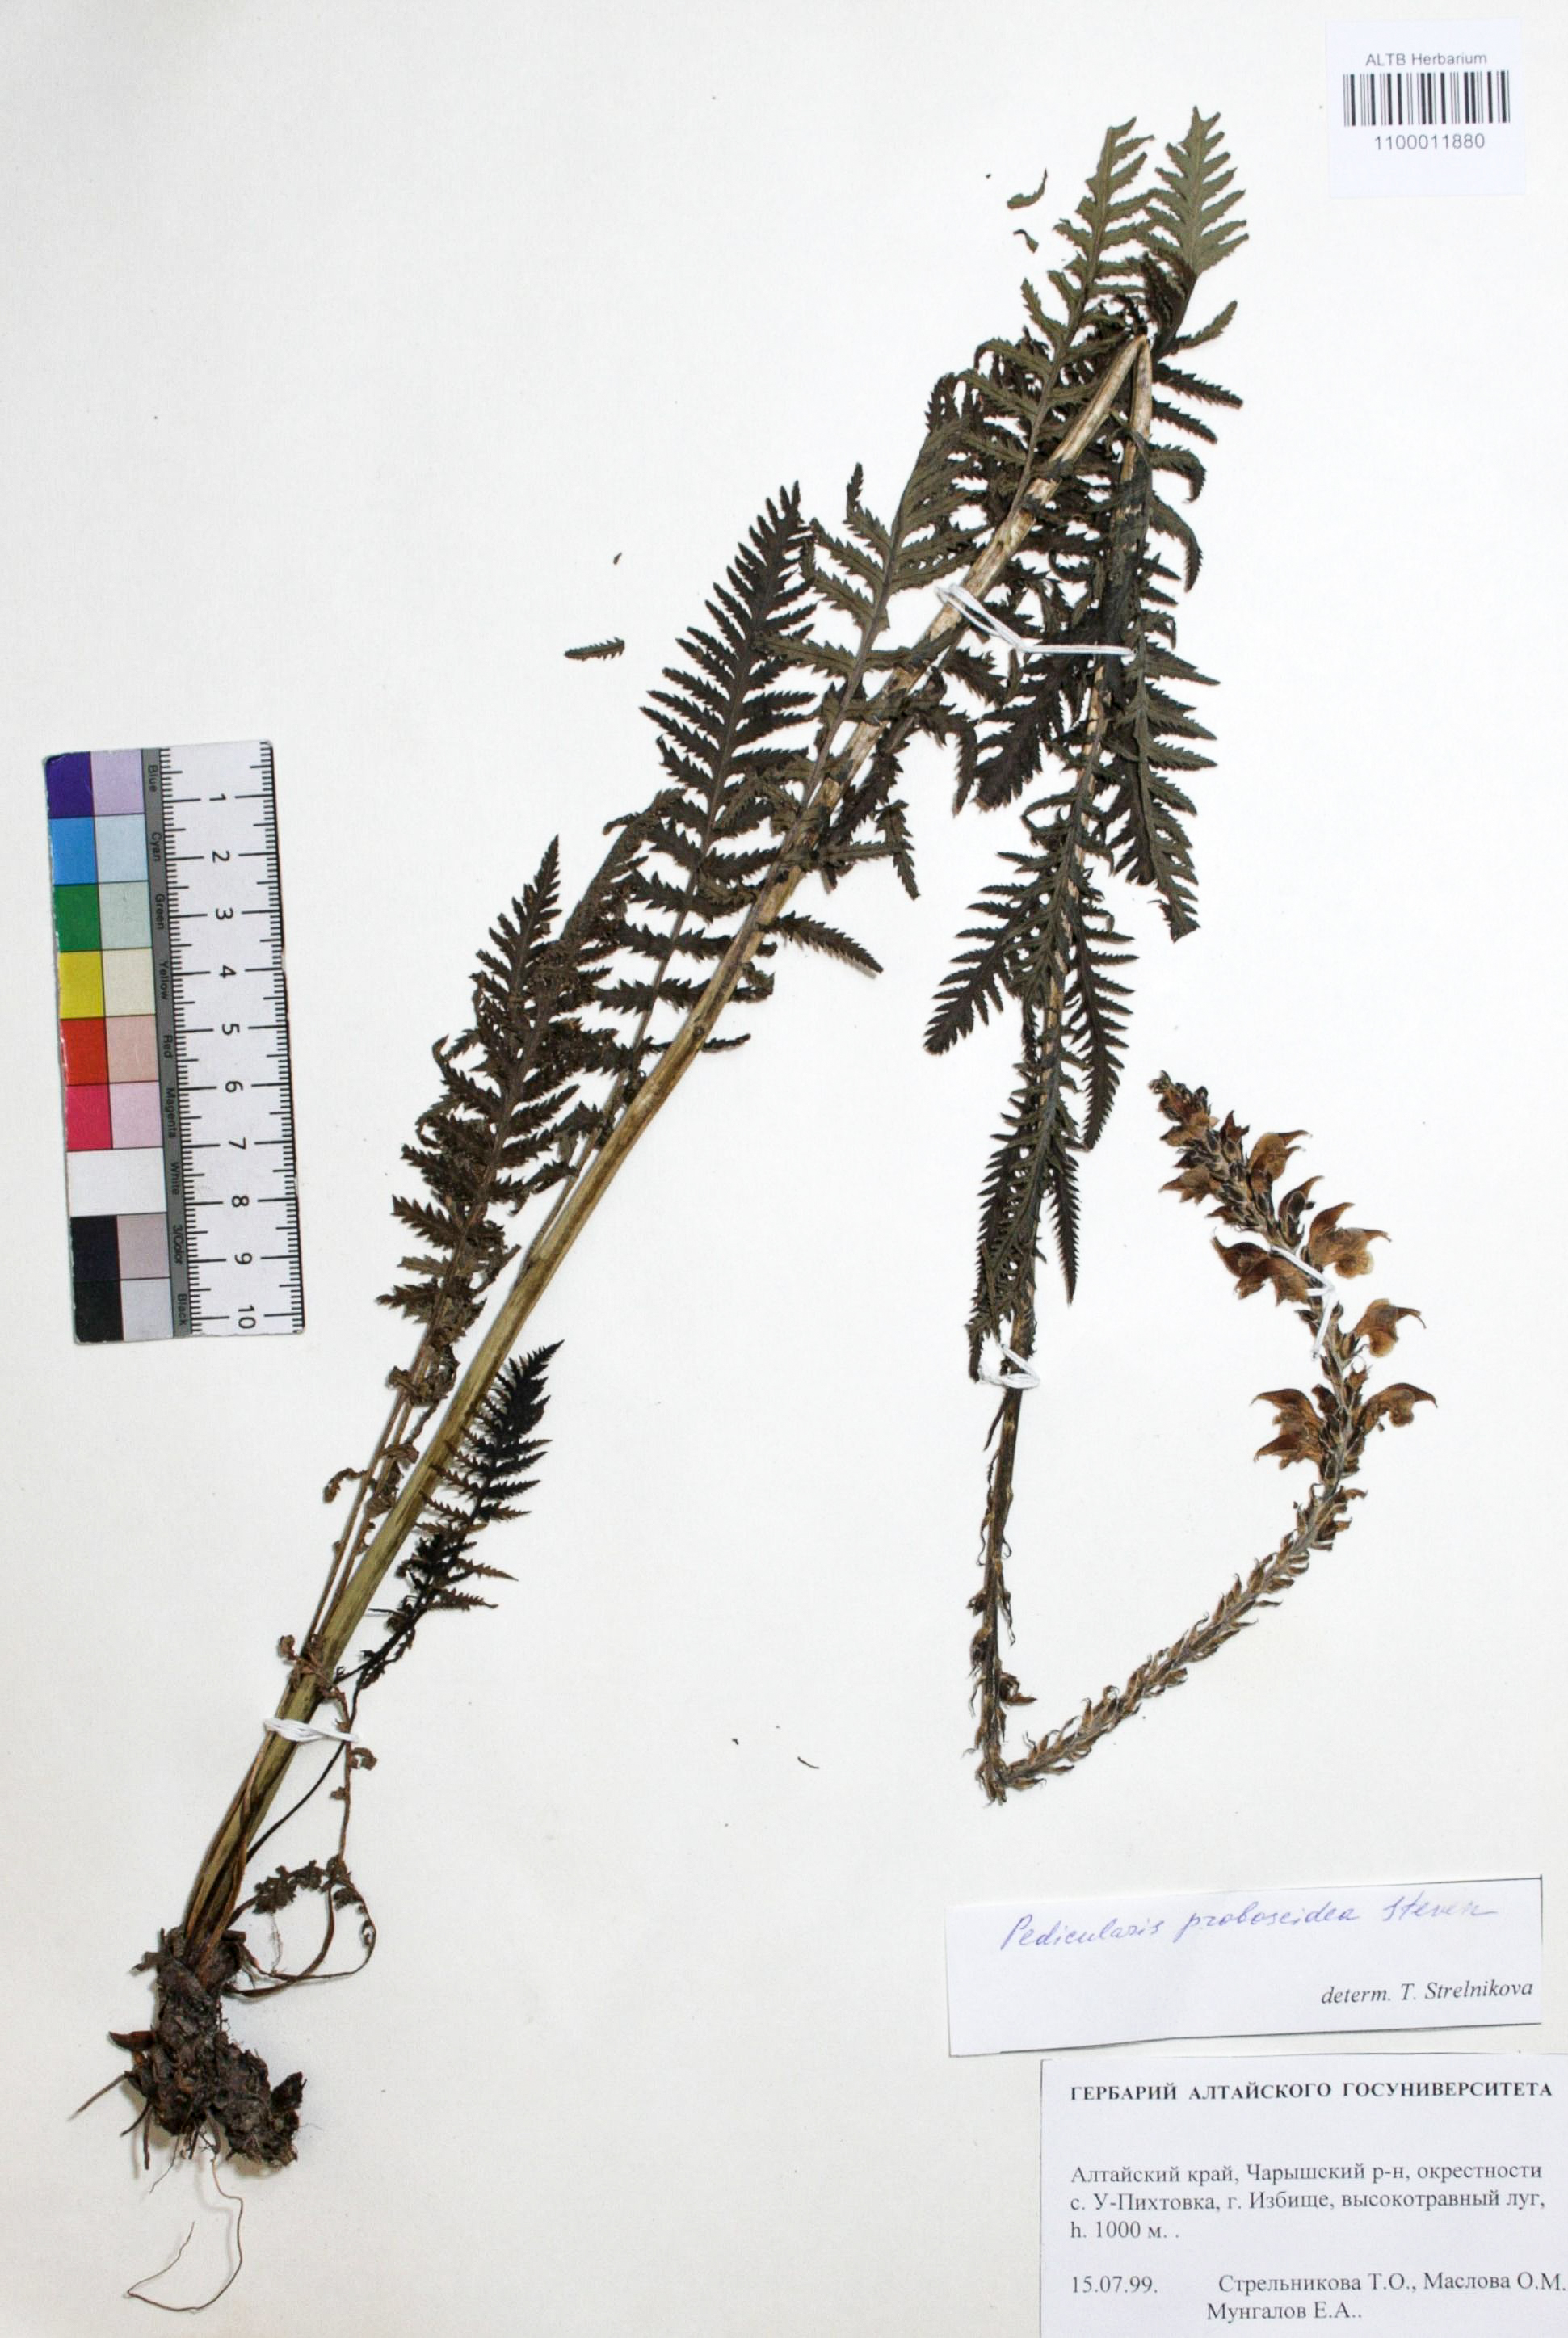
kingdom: Plantae
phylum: Tracheophyta
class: Magnoliopsida
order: Lamiales
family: Orobanchaceae
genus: Pedicularis
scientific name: Pedicularis proboscidea
